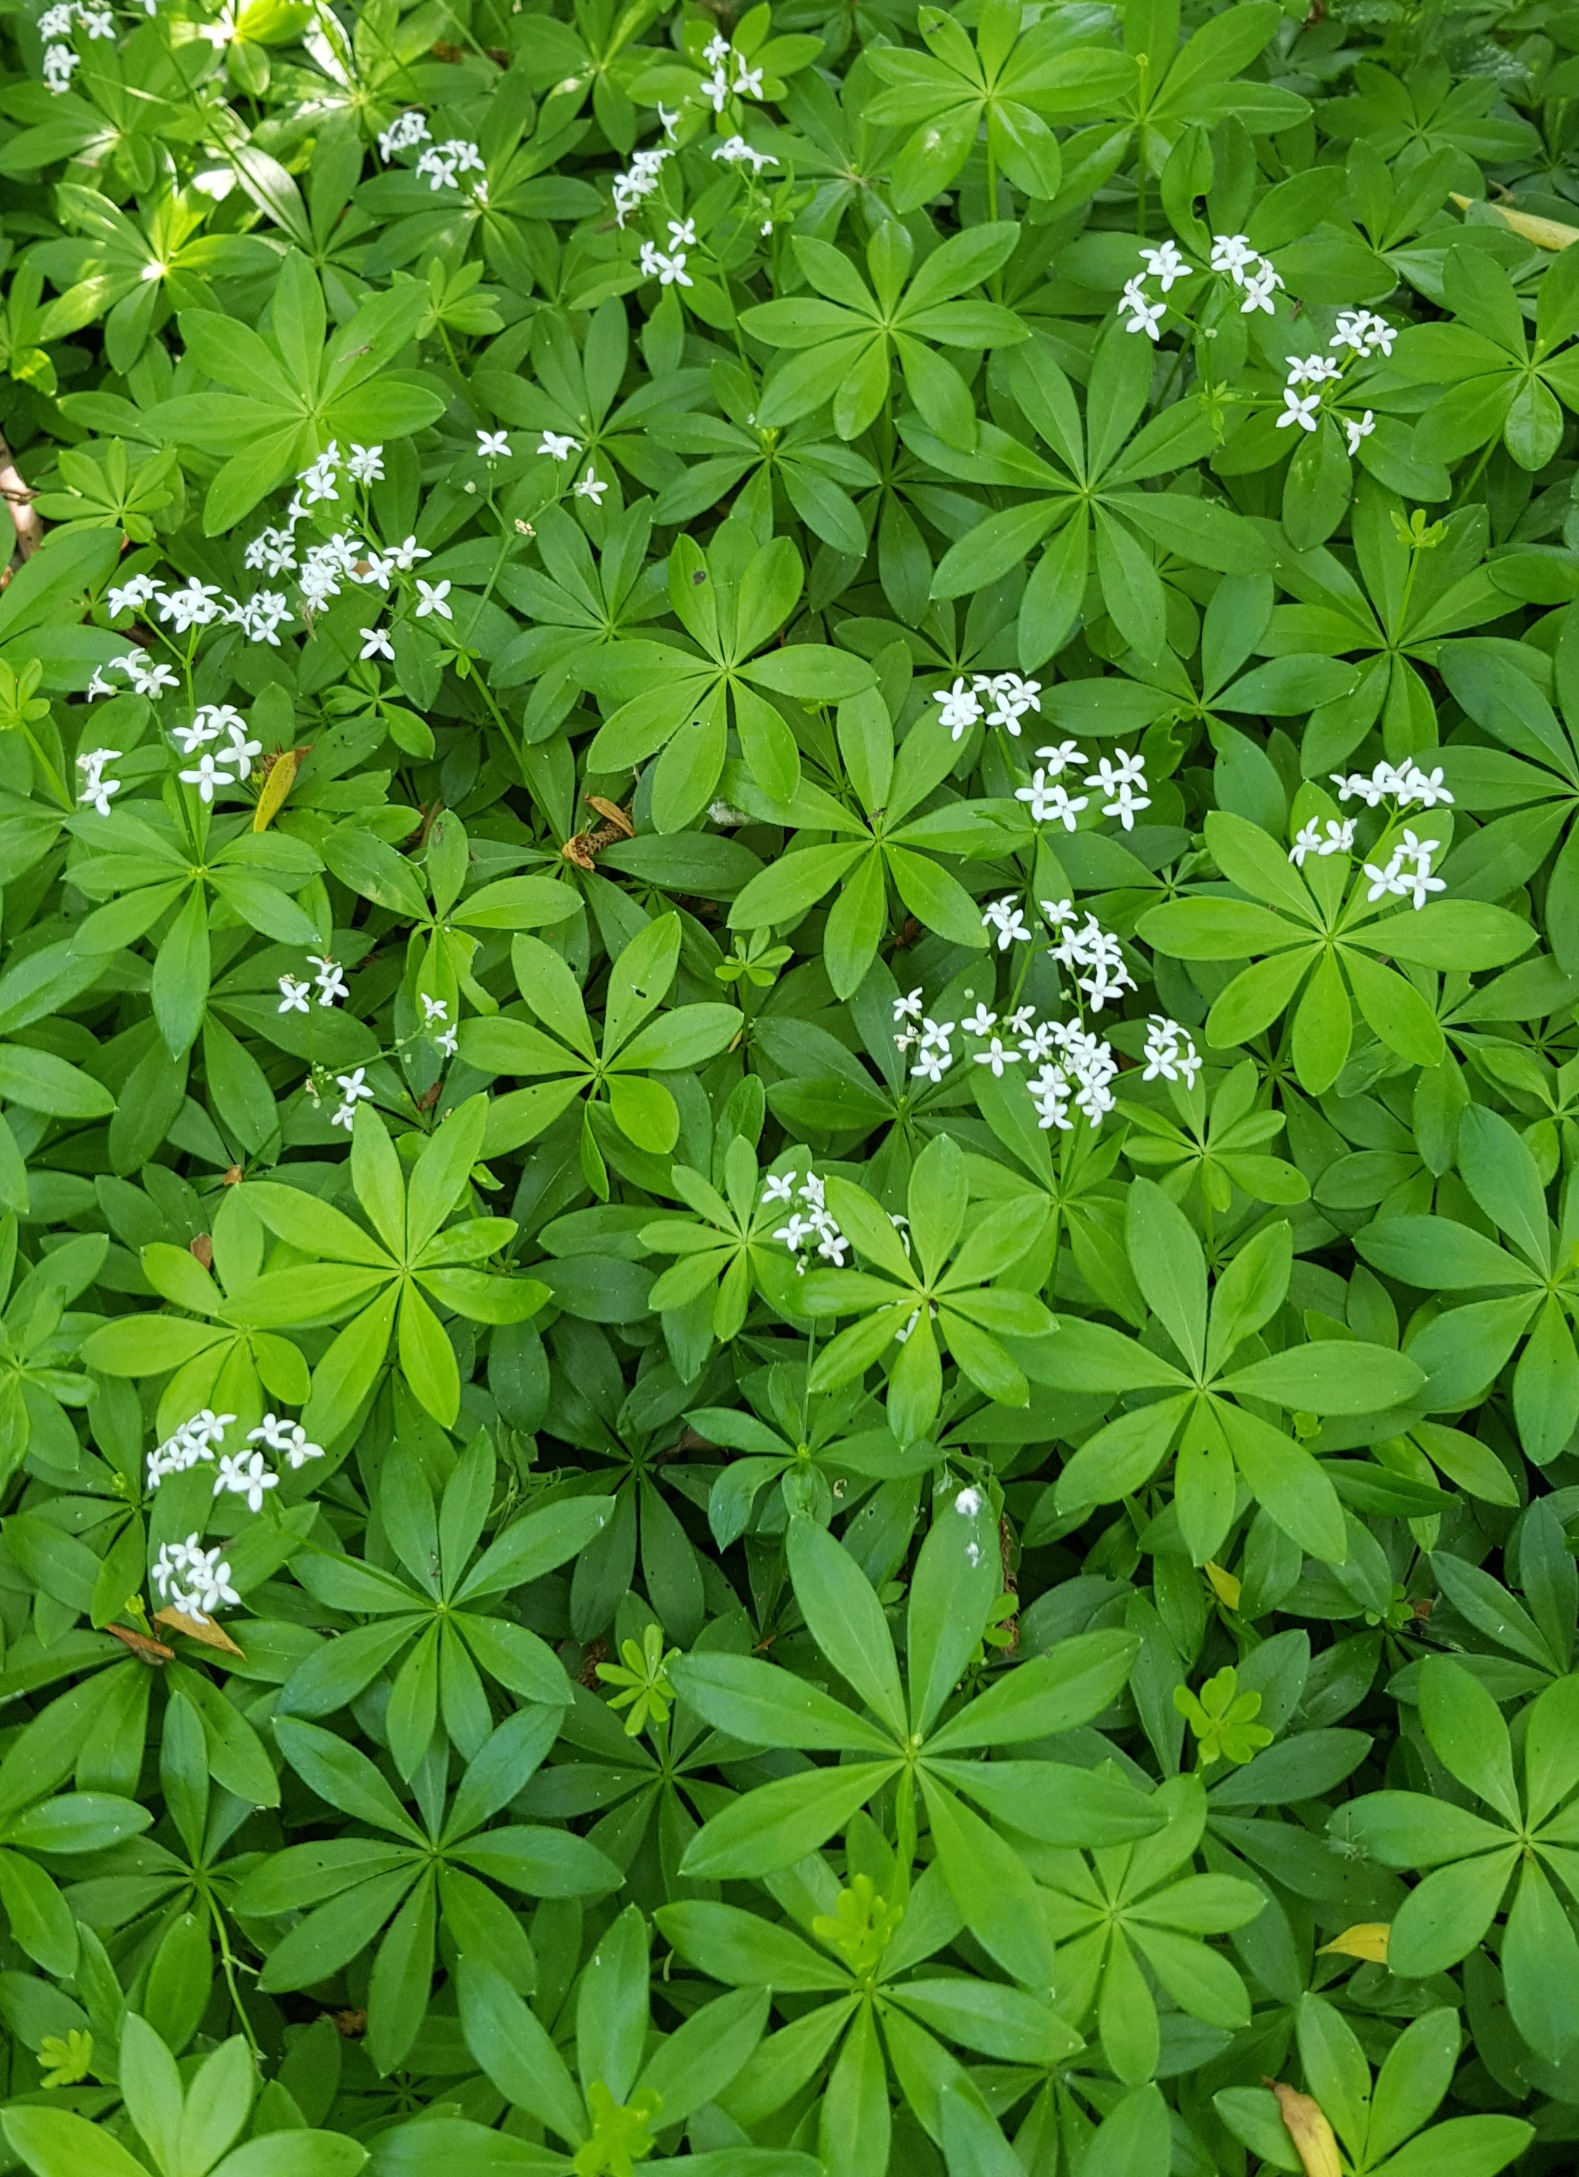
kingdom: Plantae
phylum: Tracheophyta
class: Magnoliopsida
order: Gentianales
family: Rubiaceae
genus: Galium
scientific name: Galium odoratum
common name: Skovmærke
